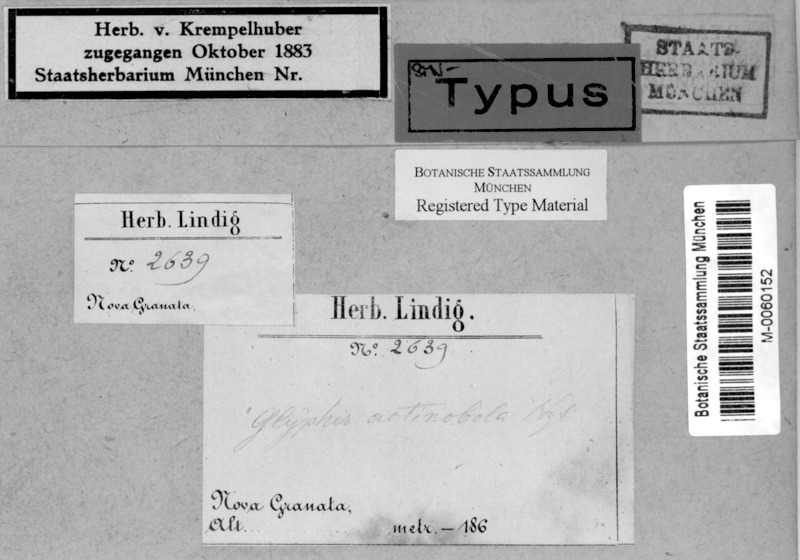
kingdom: Fungi
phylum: Ascomycota
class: Lecanoromycetes
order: Ostropales
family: Graphidaceae
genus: Sarcographa
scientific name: Sarcographa actinobola
